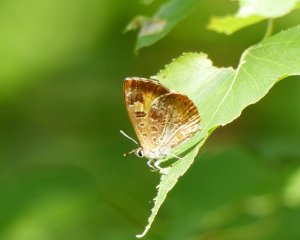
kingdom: Animalia
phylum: Arthropoda
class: Insecta
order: Lepidoptera
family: Lycaenidae
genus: Feniseca
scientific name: Feniseca tarquinius
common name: Harvester
